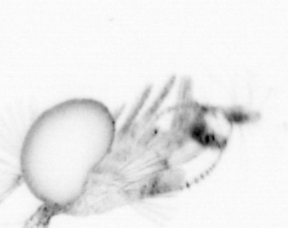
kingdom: Animalia
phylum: Arthropoda
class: Copepoda
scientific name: Copepoda
